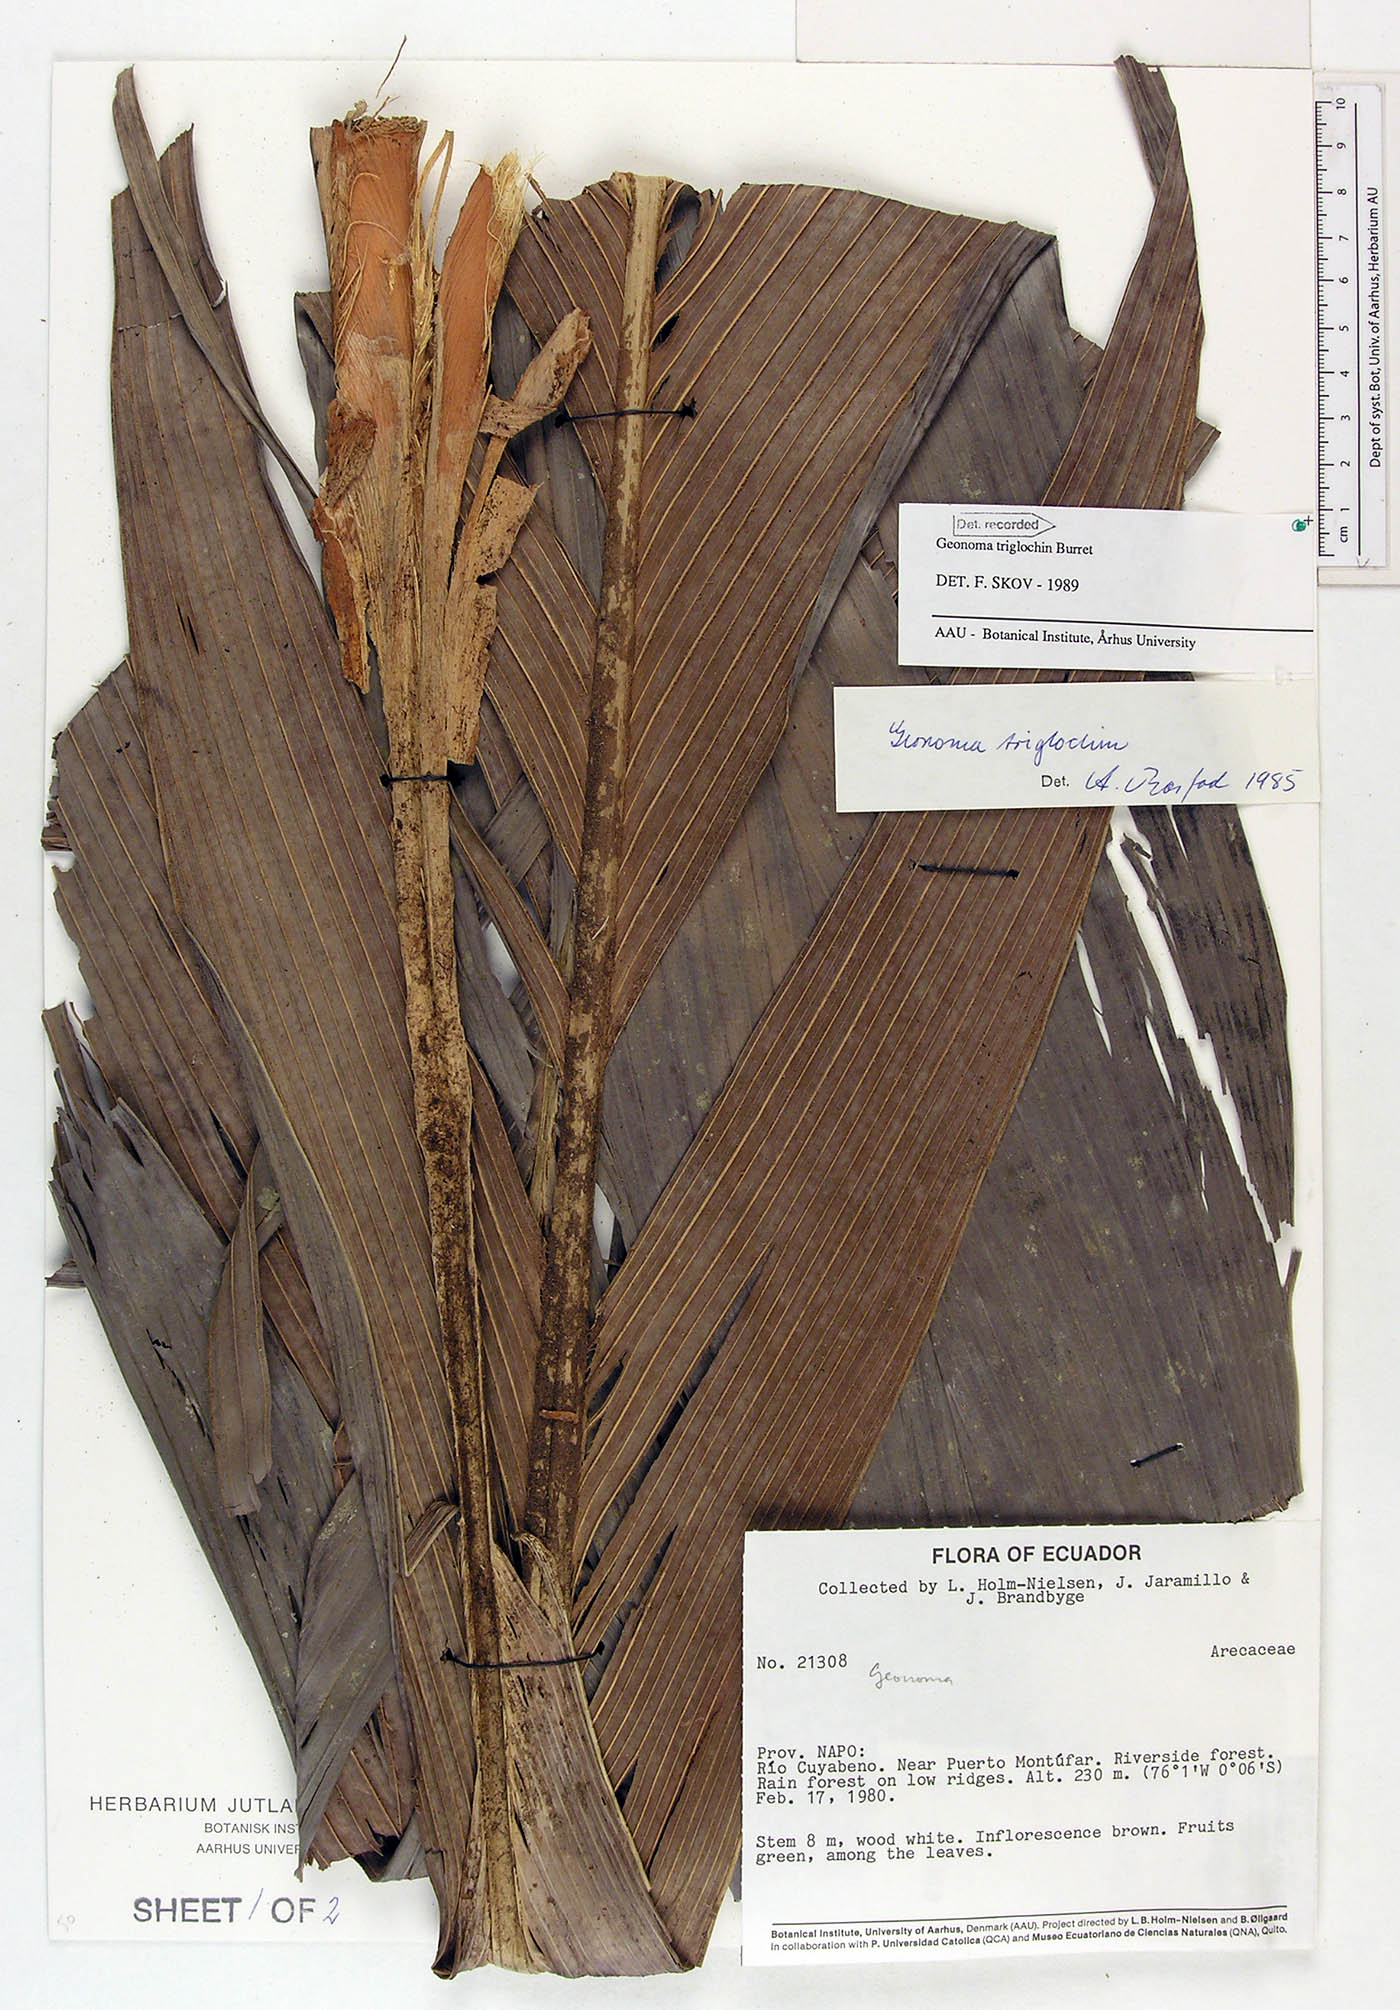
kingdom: Plantae
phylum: Tracheophyta
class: Liliopsida
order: Arecales
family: Arecaceae
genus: Geonoma
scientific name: Geonoma triglochin
